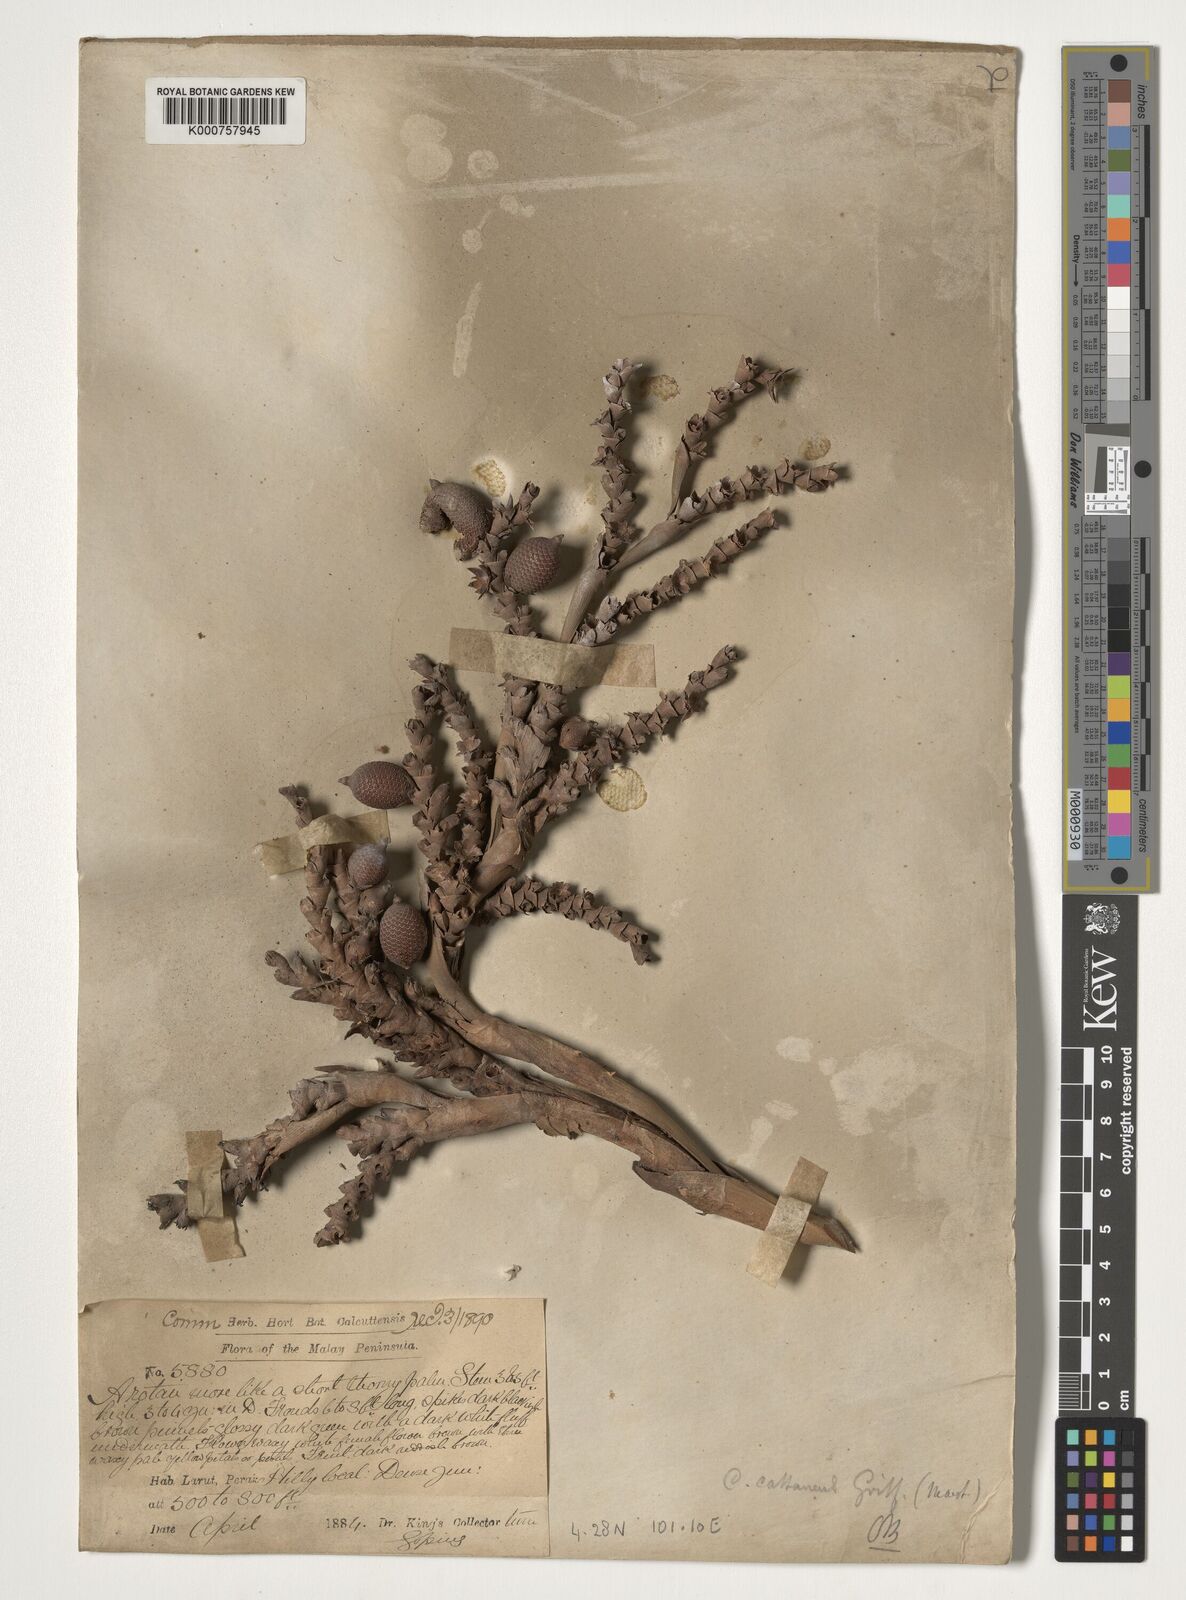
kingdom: Plantae
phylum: Tracheophyta
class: Liliopsida
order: Arecales
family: Arecaceae
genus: Calamus
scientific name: Calamus castaneus
